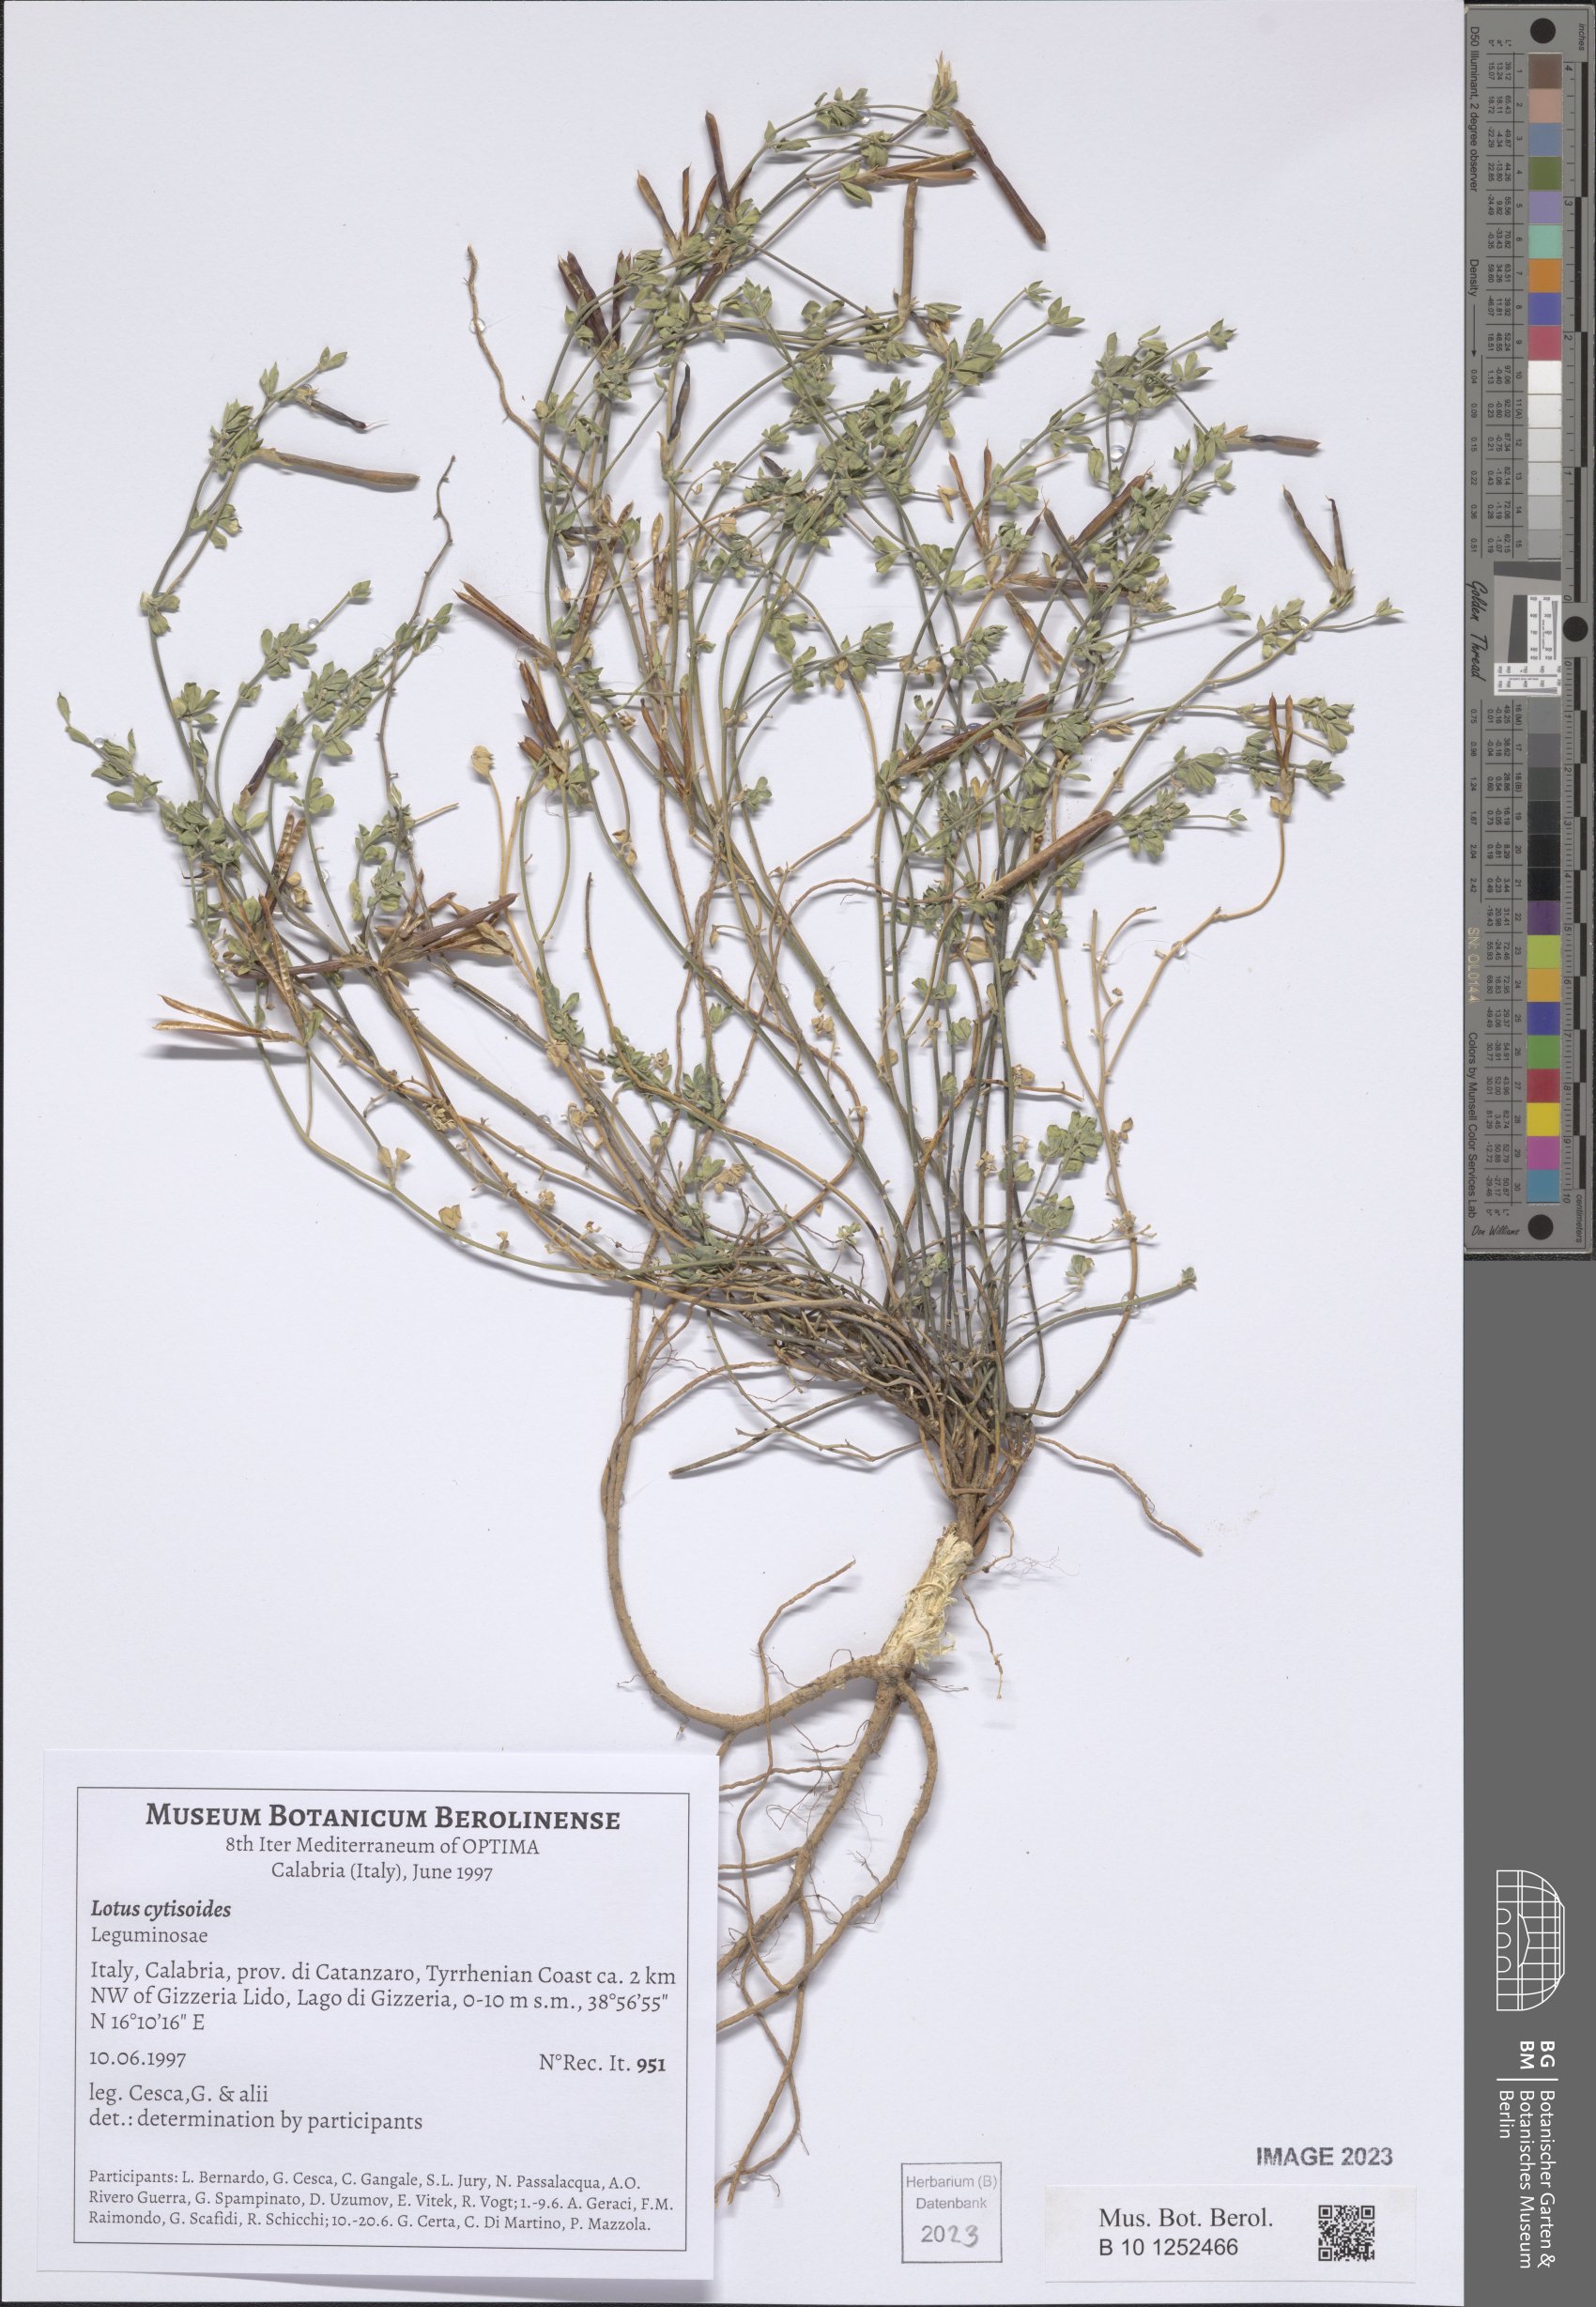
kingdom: Plantae
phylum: Tracheophyta
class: Magnoliopsida
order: Fabales
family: Fabaceae
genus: Lotus
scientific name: Lotus cytisoides
